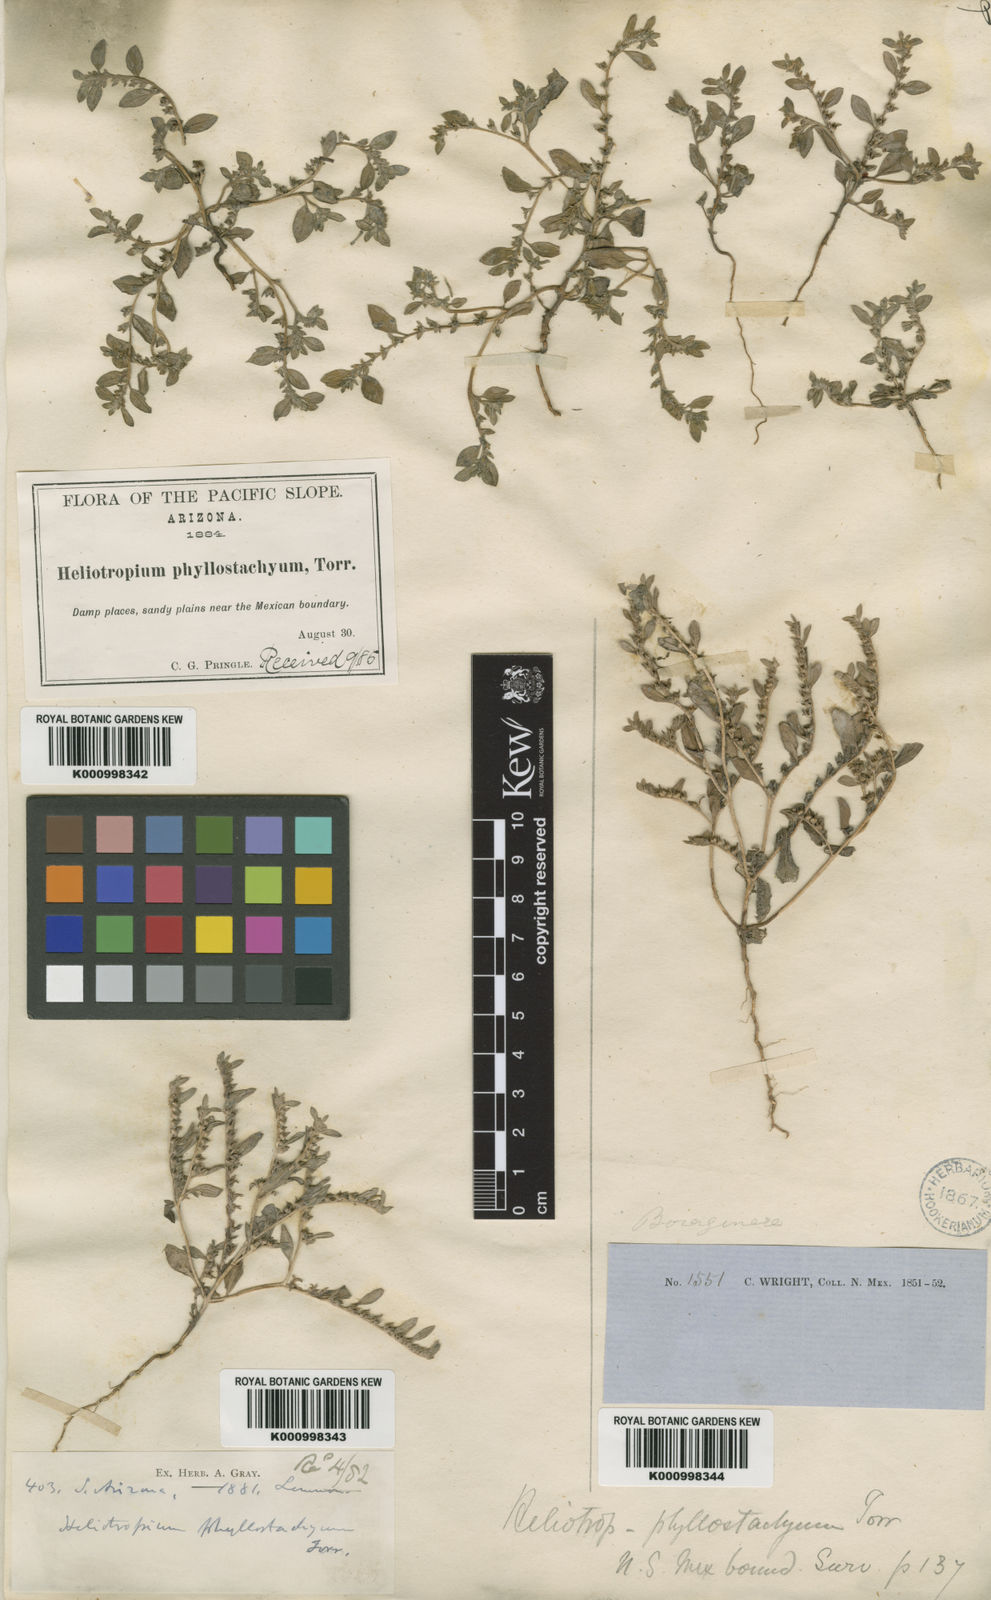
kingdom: Plantae
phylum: Tracheophyta
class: Magnoliopsida
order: Boraginales
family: Heliotropiaceae
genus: Euploca
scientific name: Euploca fruticosa
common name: Key west heliotrope
